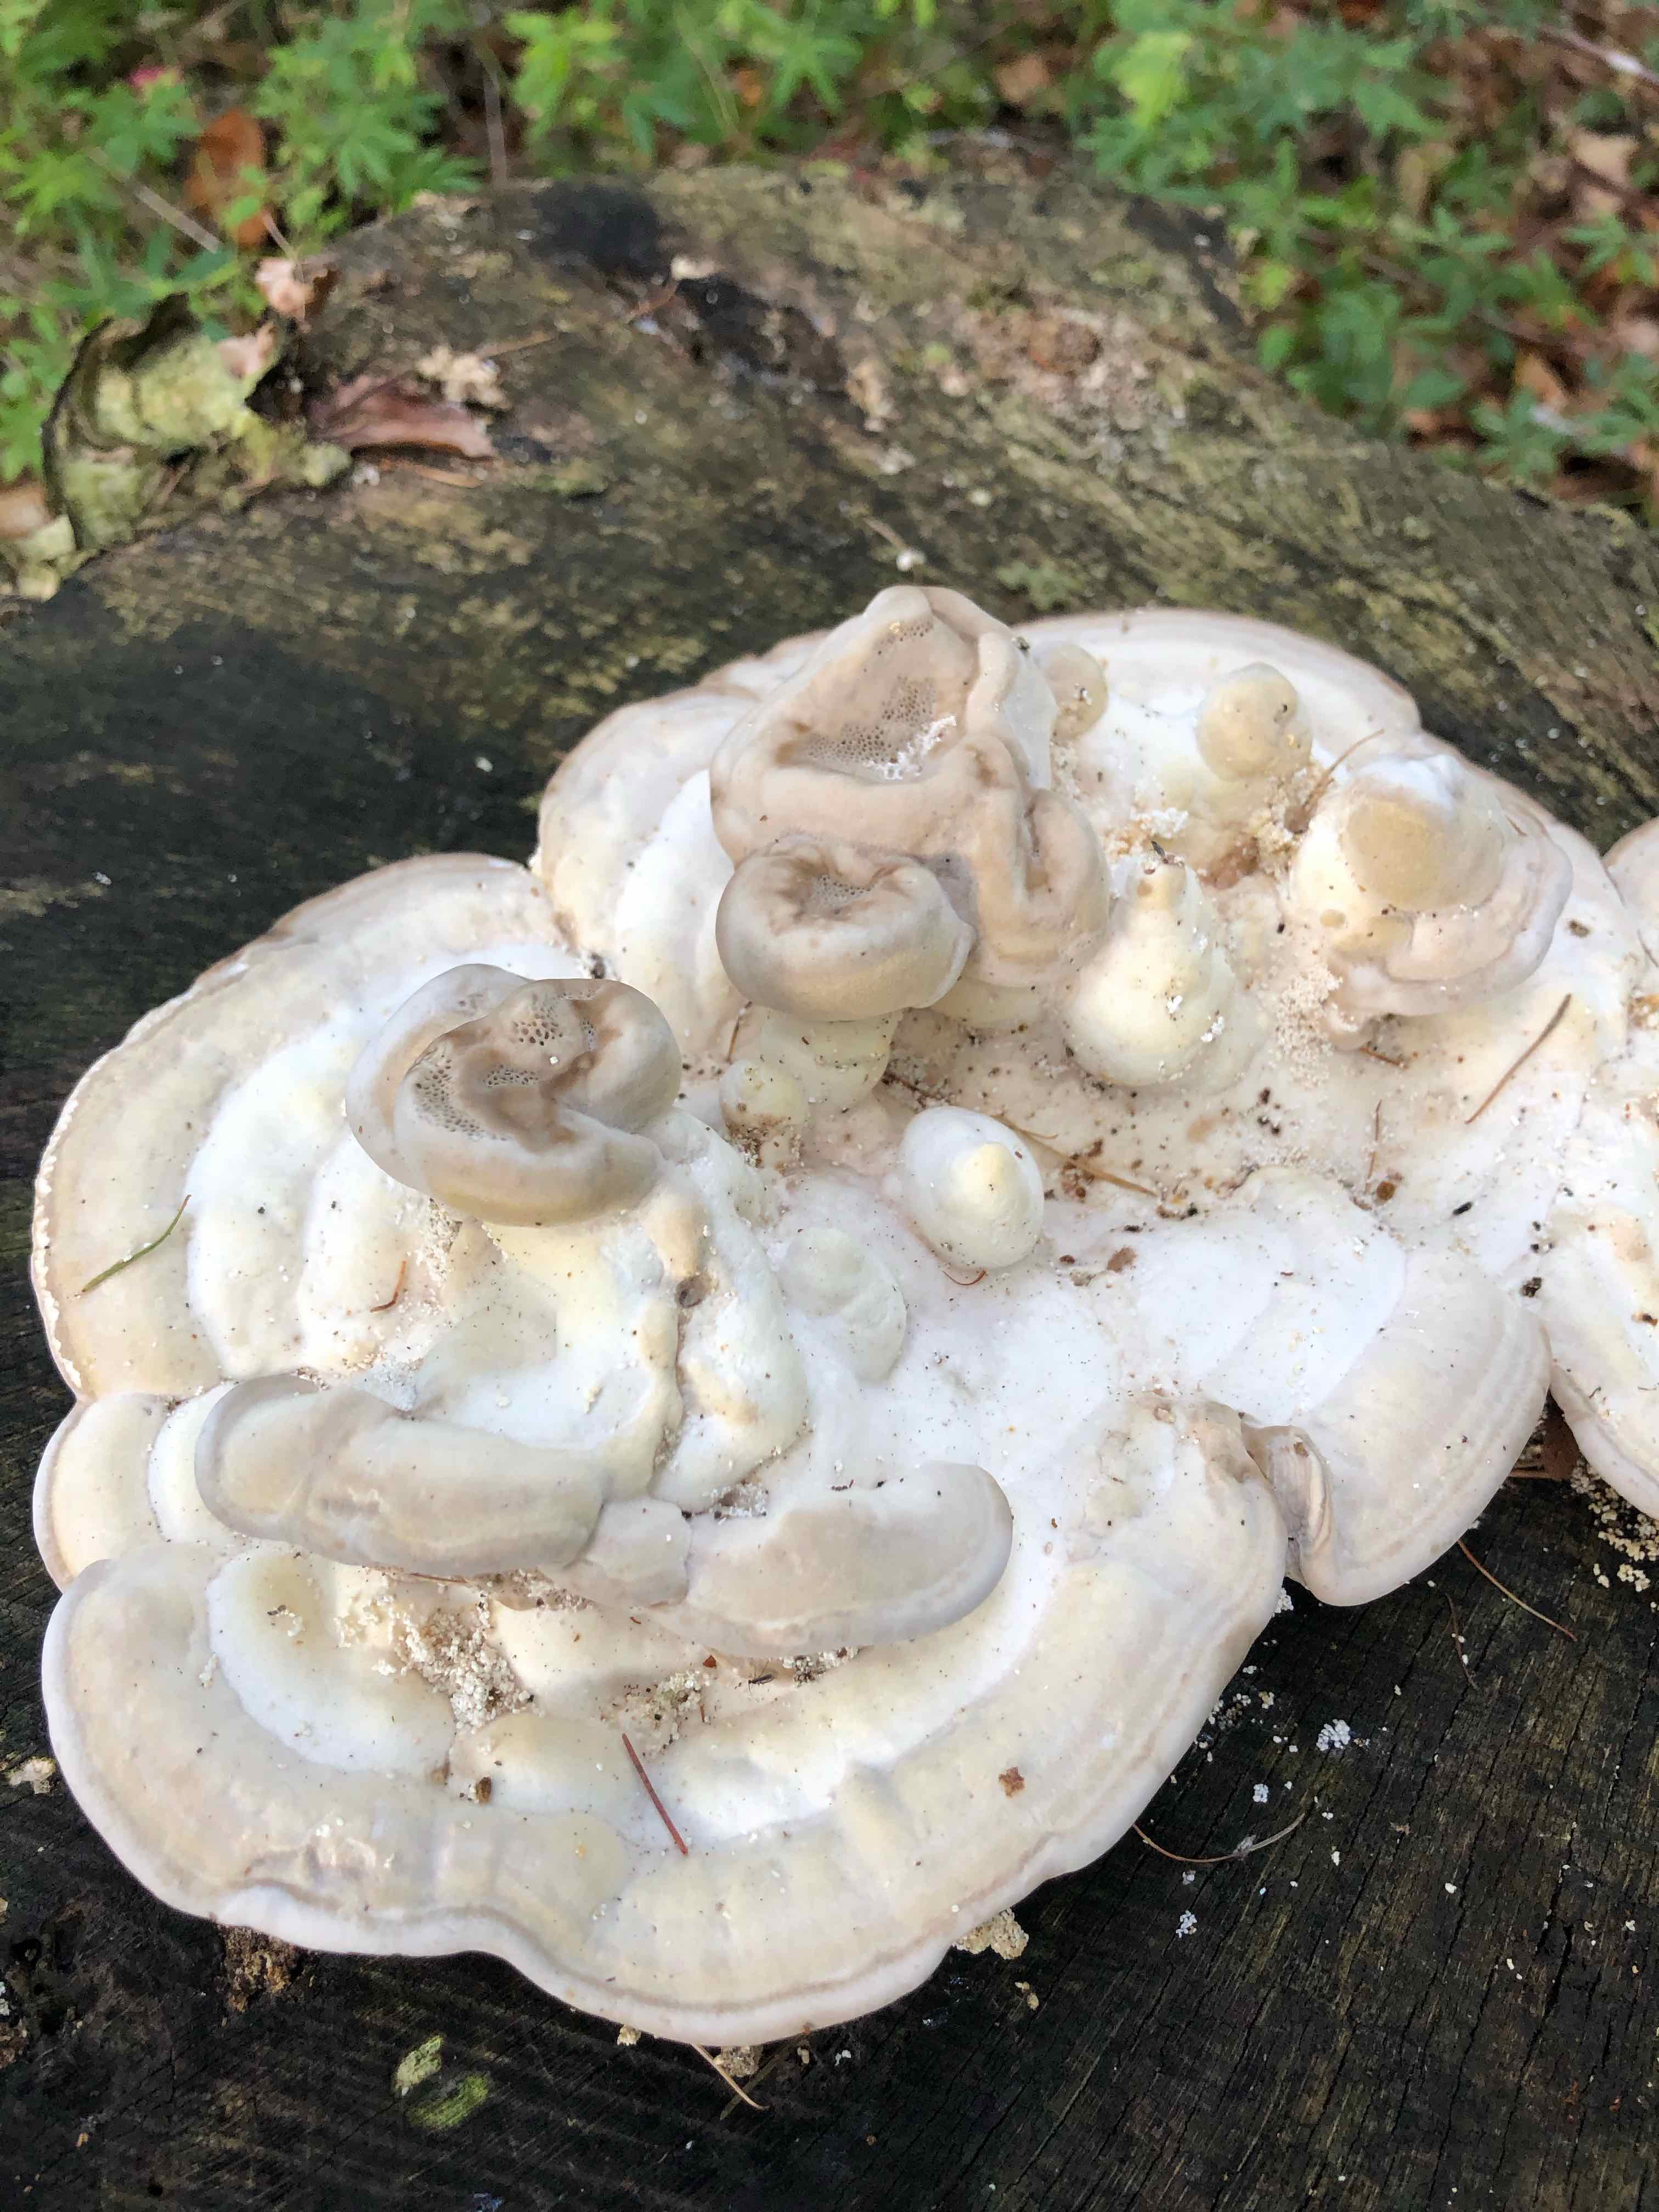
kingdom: Fungi
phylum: Basidiomycota
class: Agaricomycetes
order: Polyporales
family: Polyporaceae
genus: Trametes
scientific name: Trametes gibbosa
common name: puklet læderporesvamp
